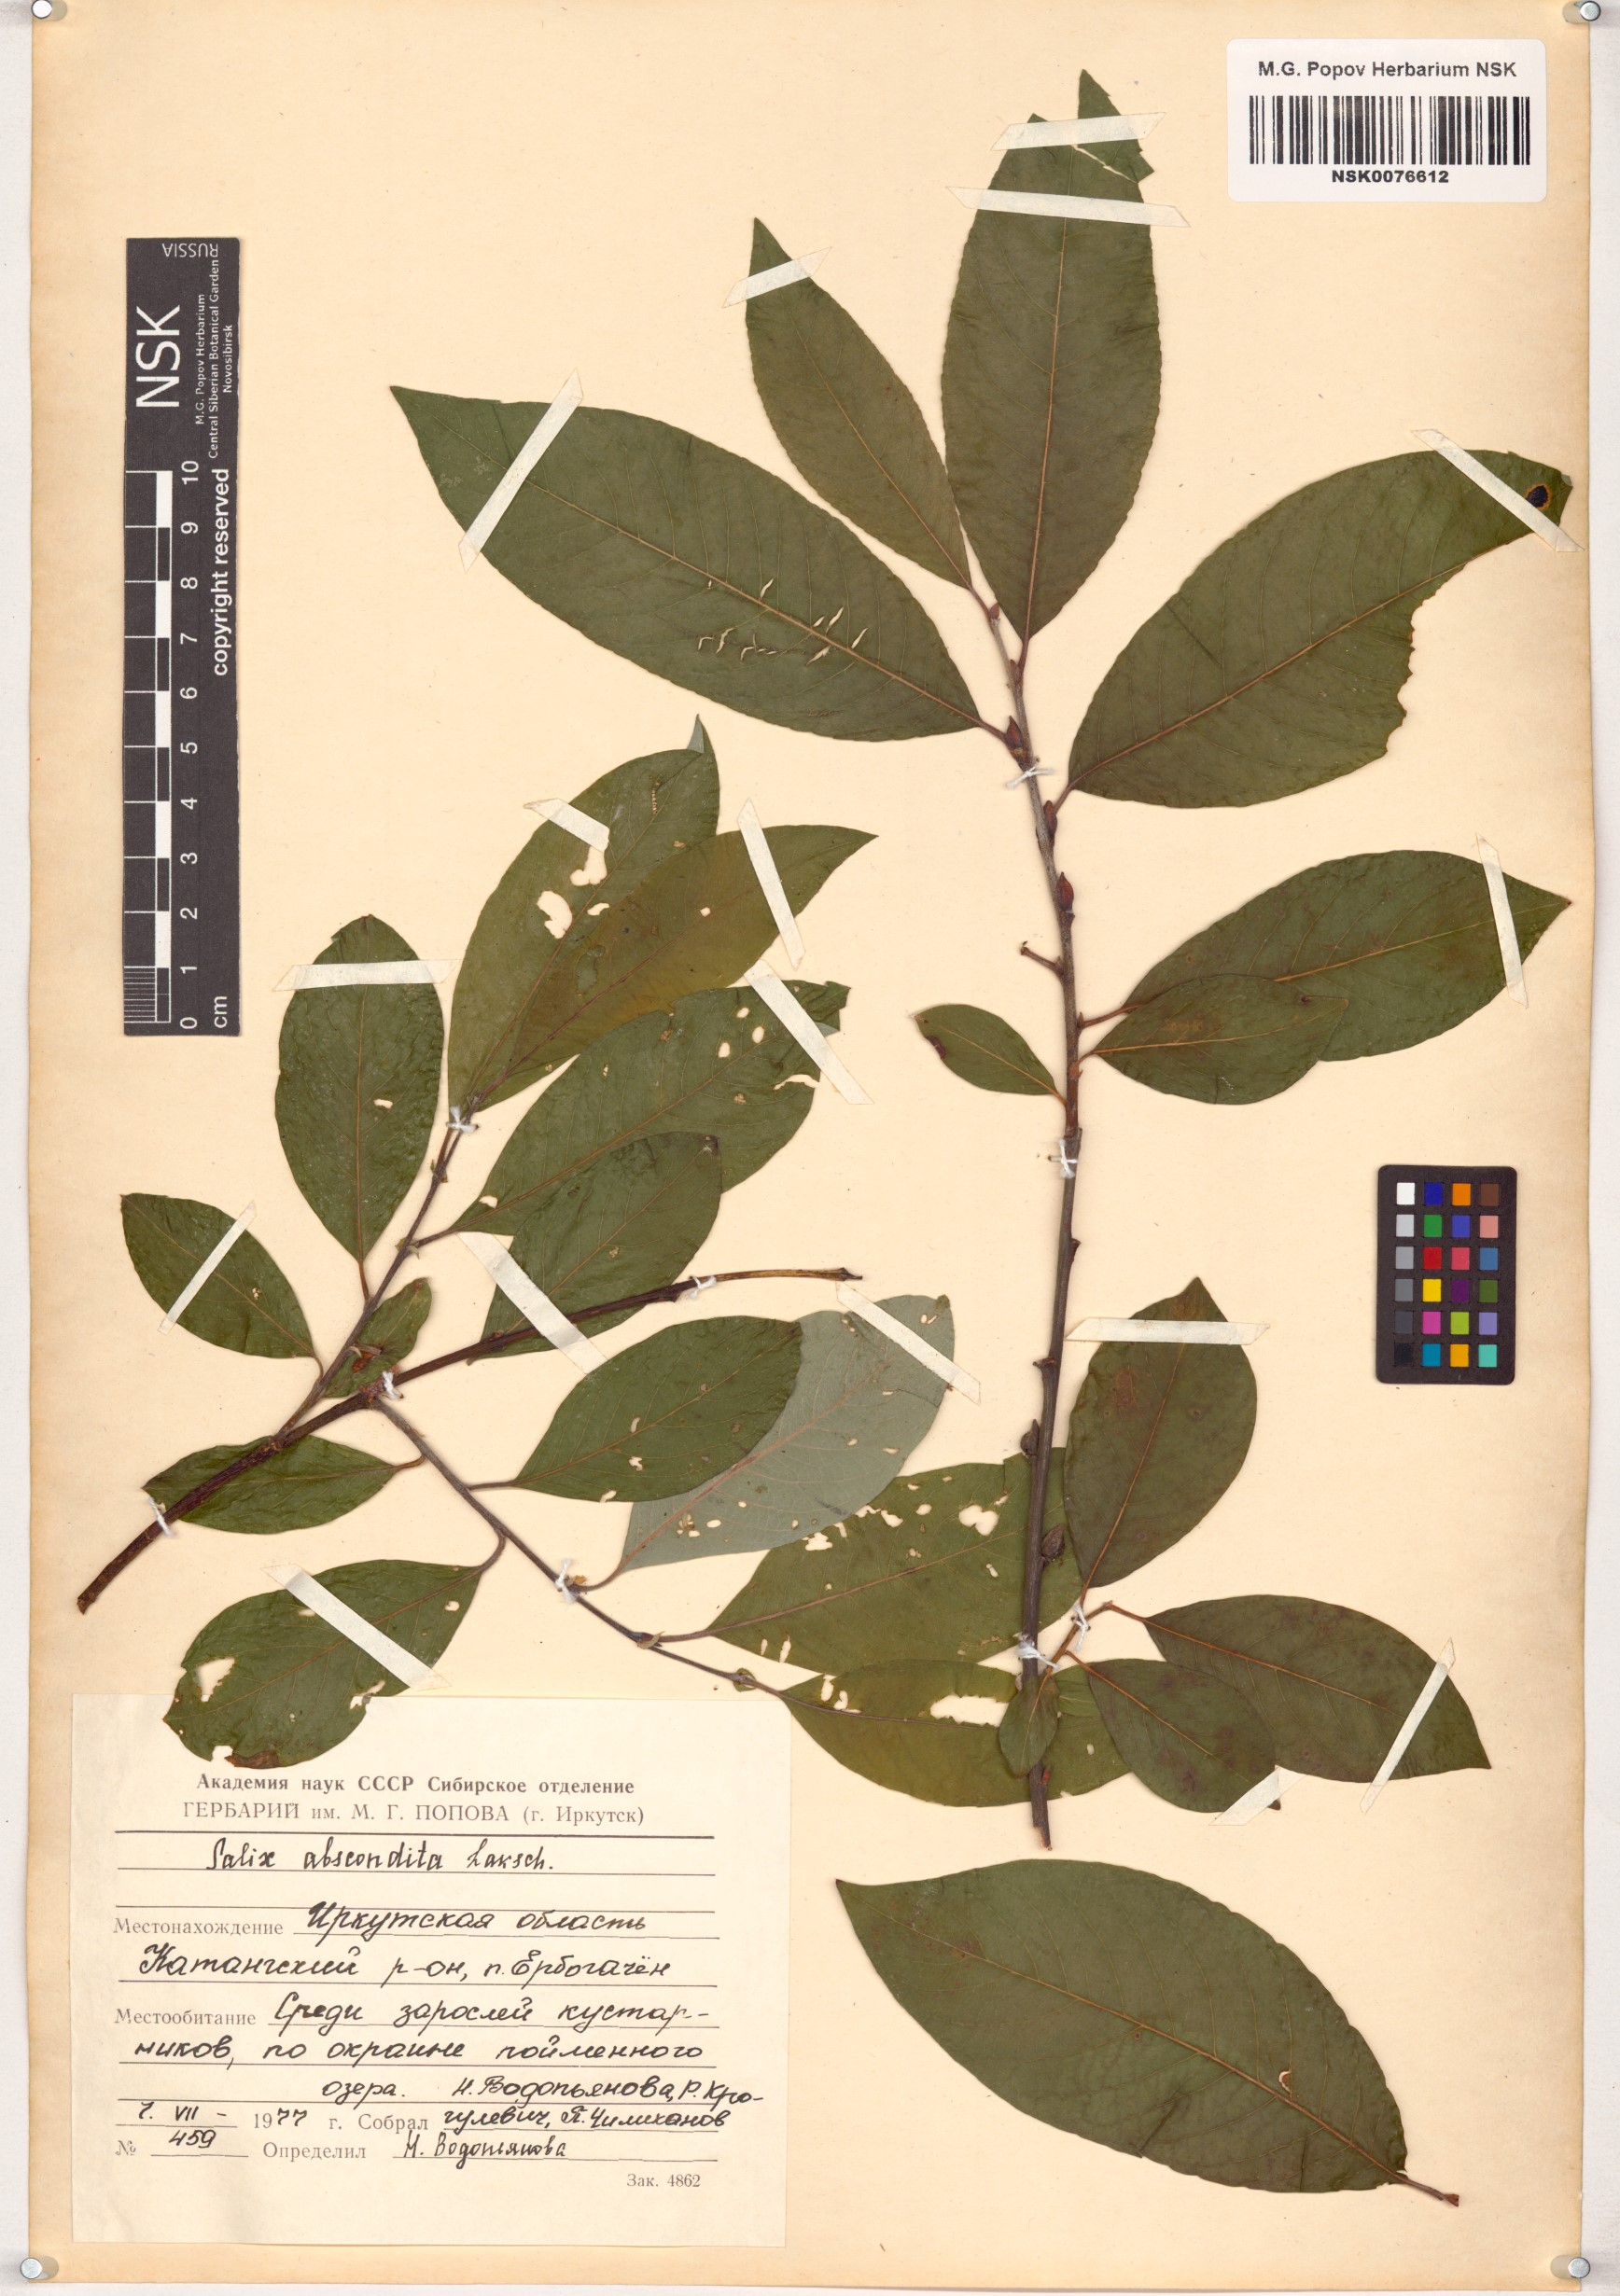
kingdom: Plantae
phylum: Tracheophyta
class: Magnoliopsida
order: Malpighiales
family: Salicaceae
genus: Salix
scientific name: Salix abscondita
